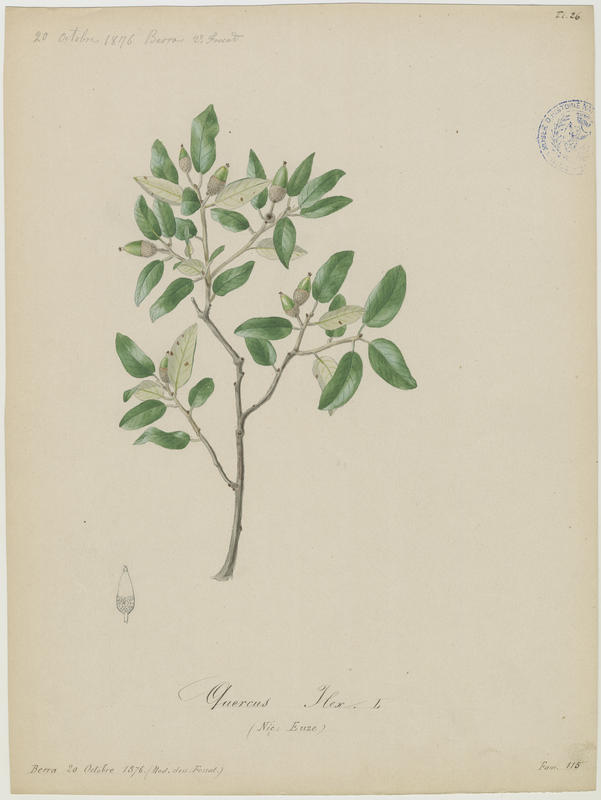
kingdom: Plantae
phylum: Tracheophyta
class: Magnoliopsida
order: Fagales
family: Fagaceae
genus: Quercus
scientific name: Quercus ilex
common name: Evergreen oak
